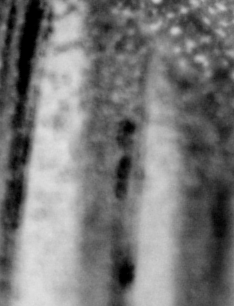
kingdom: Animalia
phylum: Chordata
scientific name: Chordata
